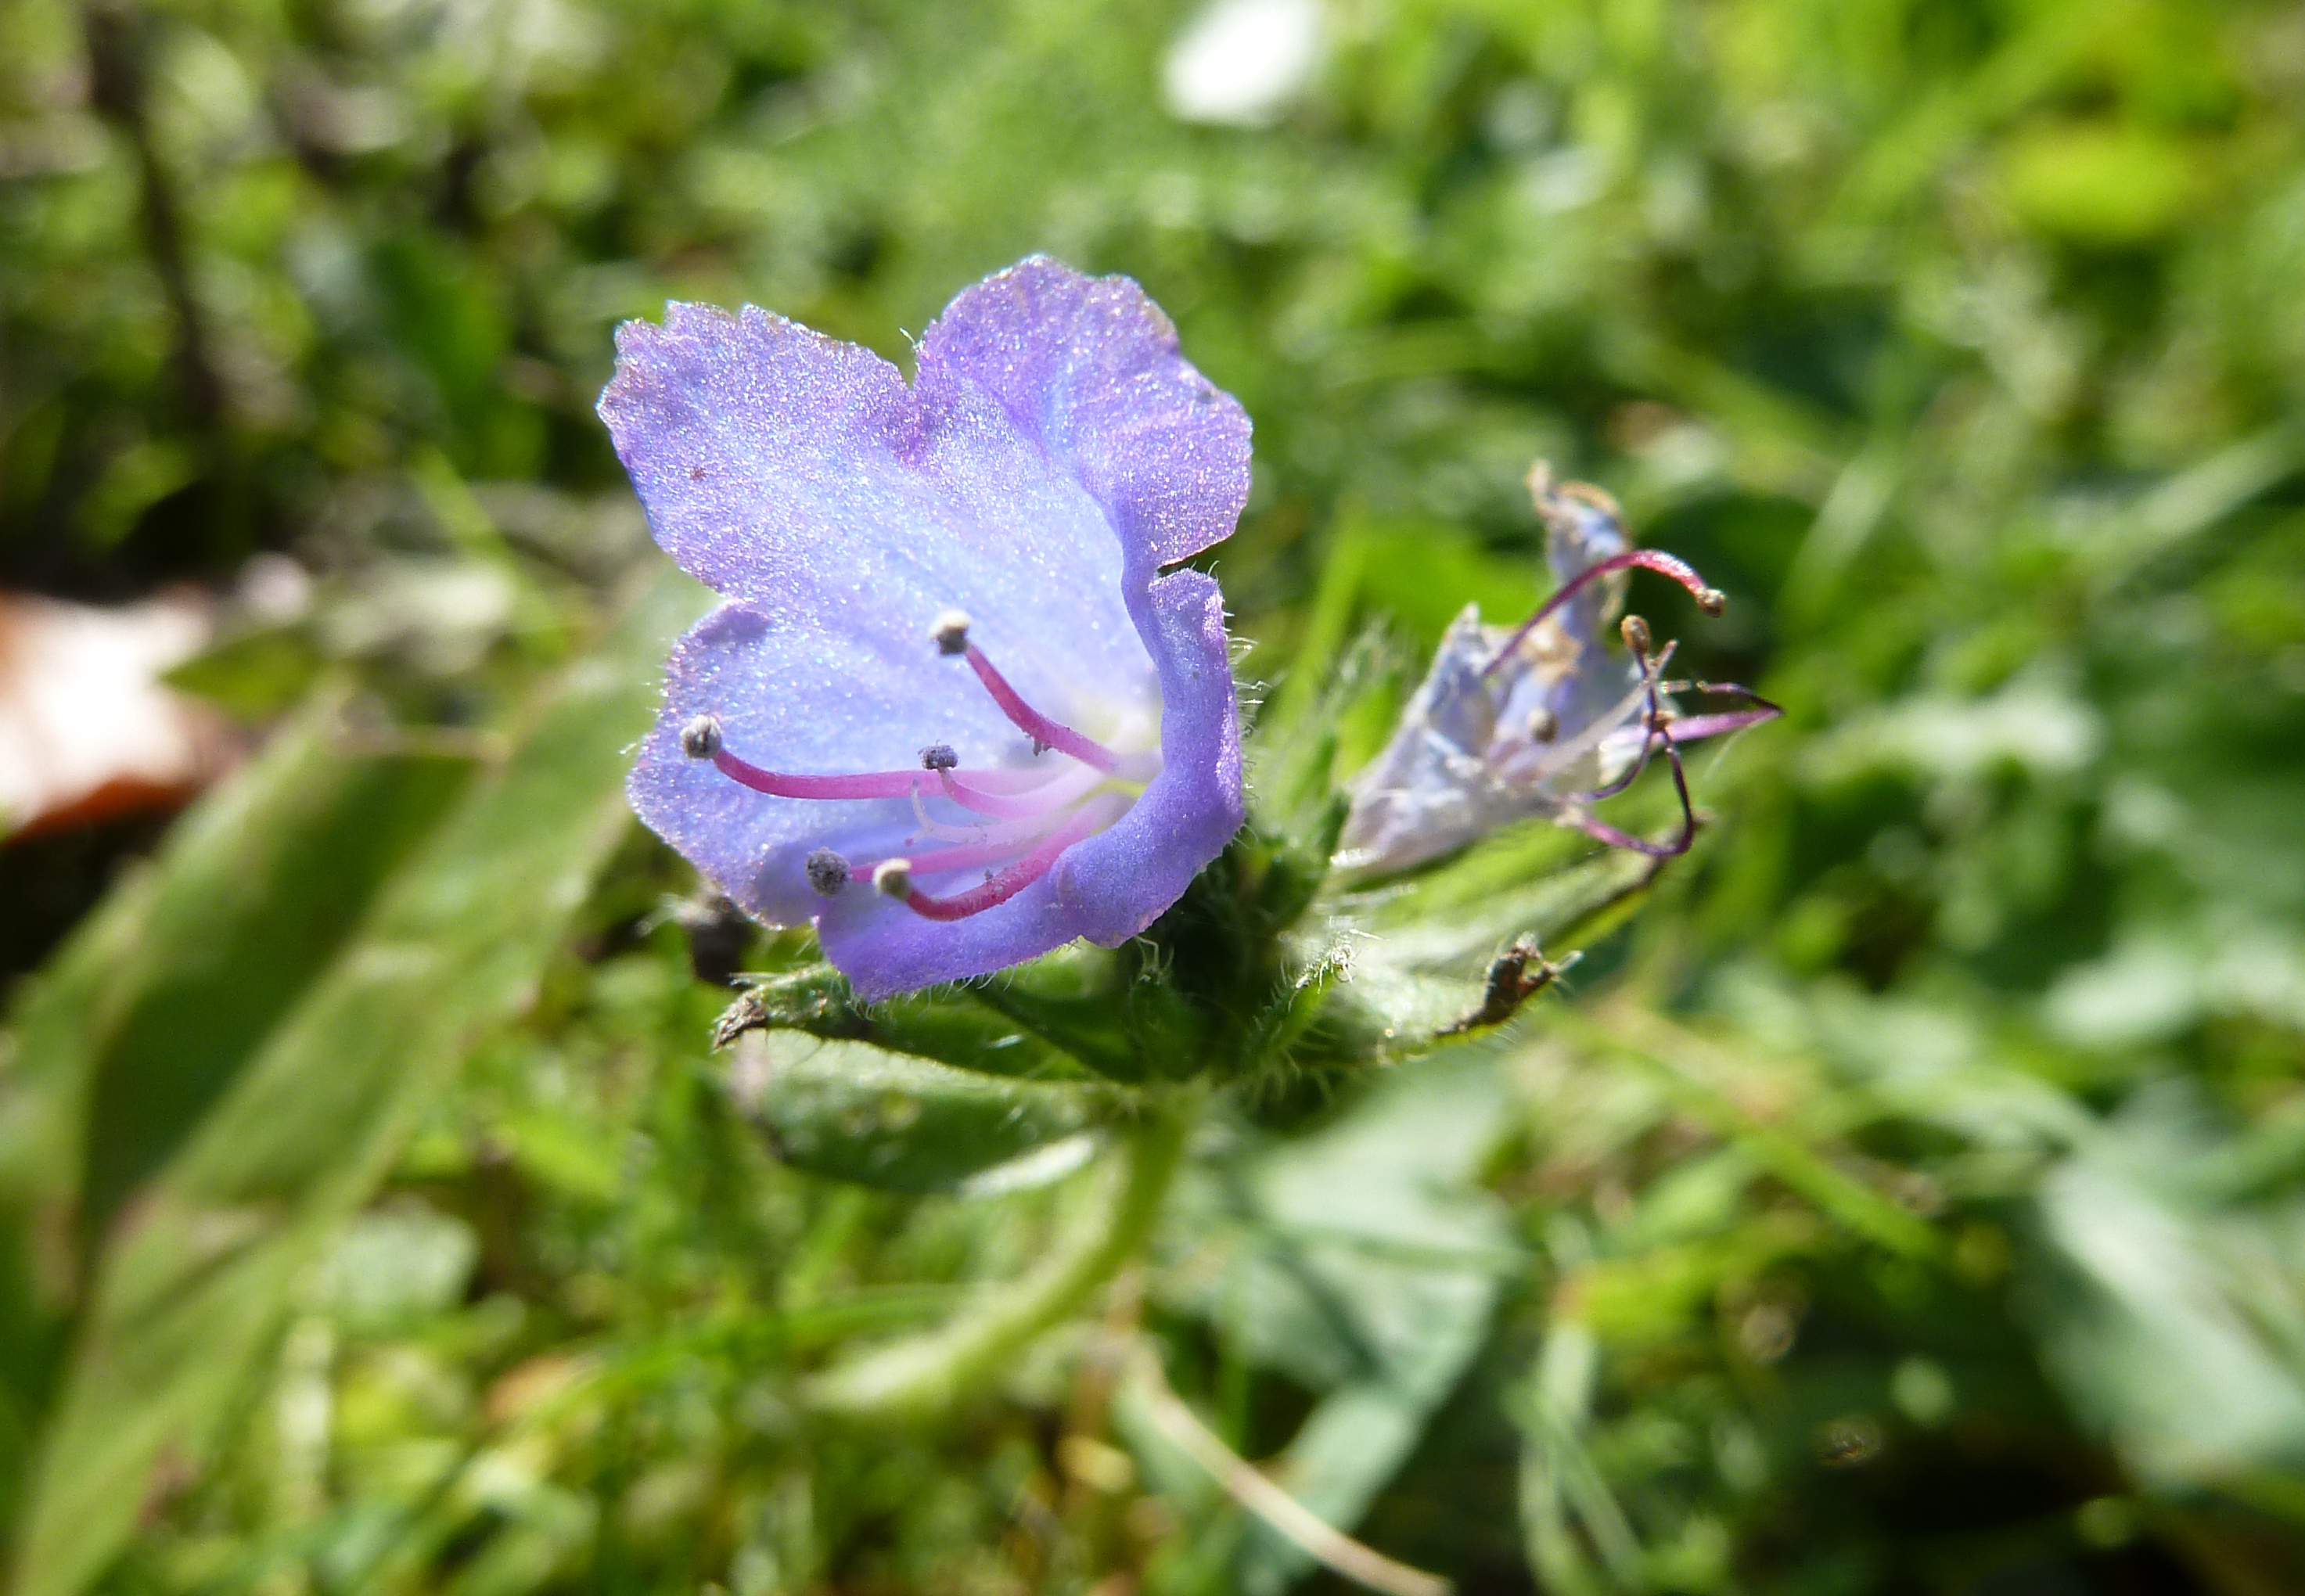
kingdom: Plantae
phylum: Tracheophyta
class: Magnoliopsida
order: Boraginales
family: Boraginaceae
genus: Echium
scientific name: Echium vulgare
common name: Common viper's bugloss
